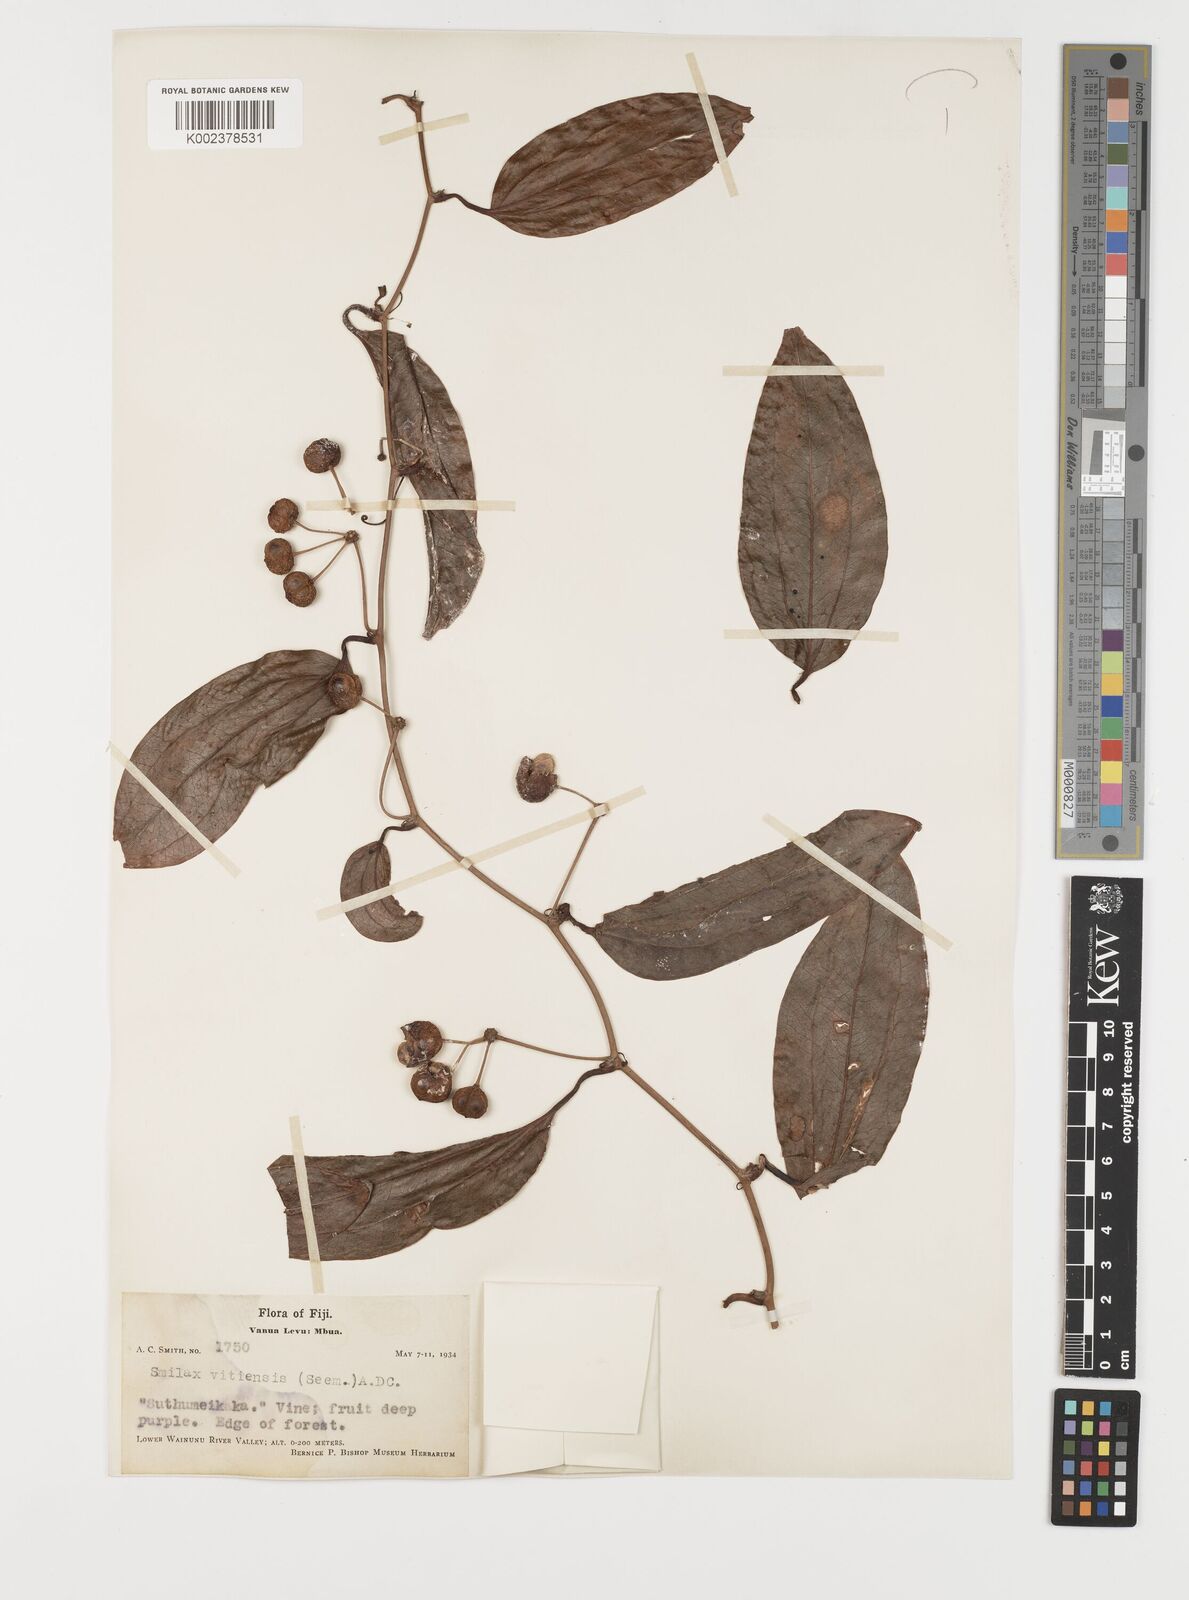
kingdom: Plantae
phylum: Tracheophyta
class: Liliopsida
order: Liliales
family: Smilacaceae
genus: Smilax
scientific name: Smilax vitiensis
